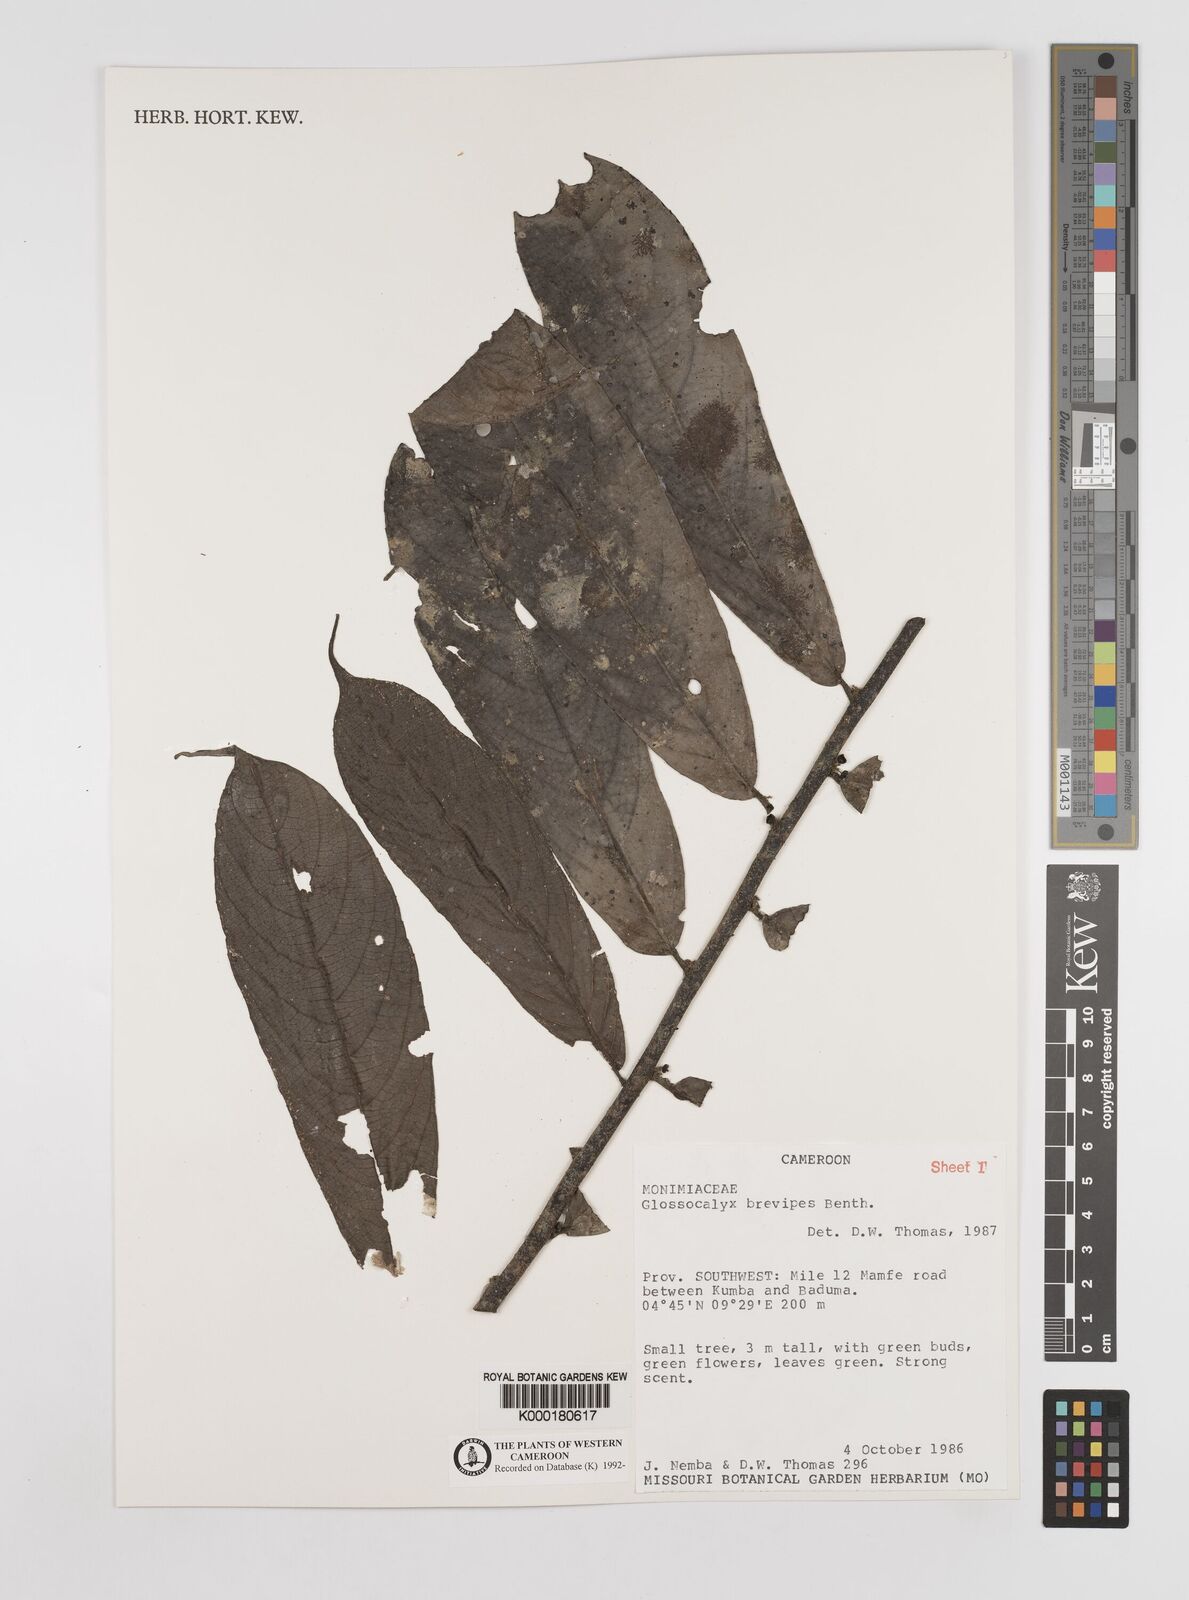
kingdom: Plantae
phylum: Tracheophyta
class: Magnoliopsida
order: Laurales
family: Siparunaceae
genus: Glossocalyx
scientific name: Glossocalyx brevipes
